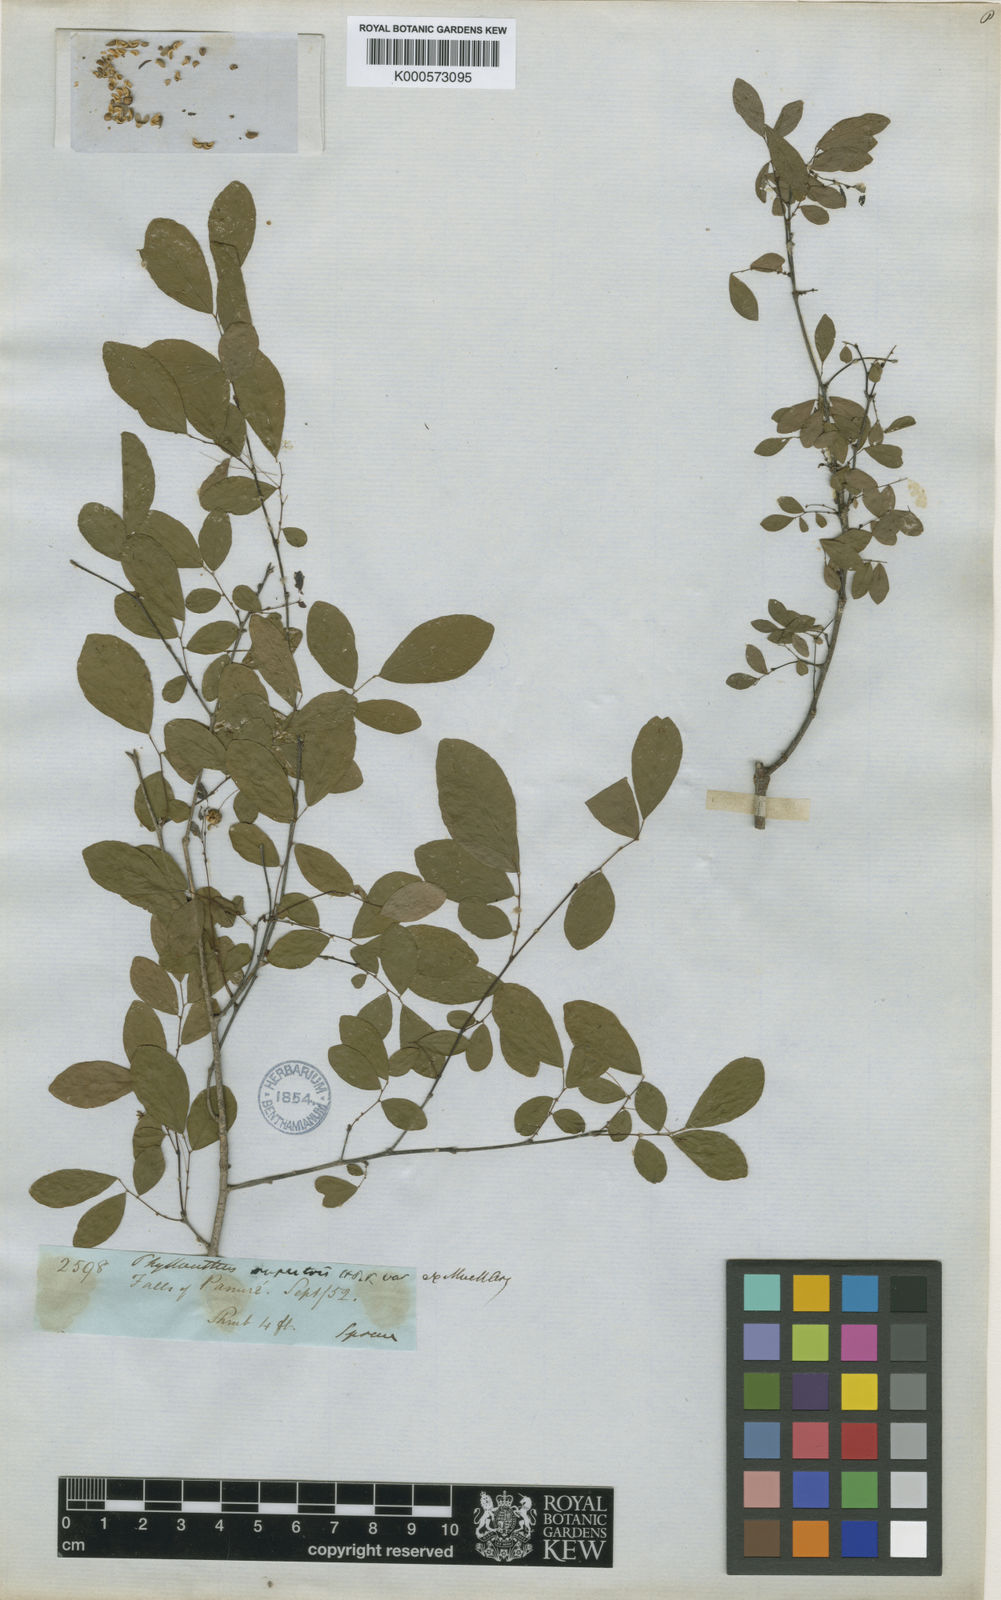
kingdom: Plantae
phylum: Tracheophyta
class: Magnoliopsida
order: Malpighiales
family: Phyllanthaceae
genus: Phyllanthus
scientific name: Phyllanthus rupestris
